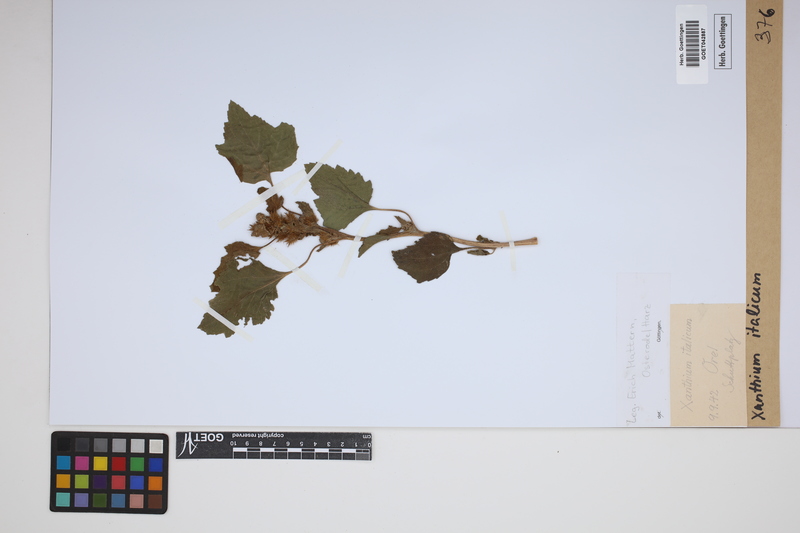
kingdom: Plantae
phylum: Tracheophyta
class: Magnoliopsida
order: Asterales
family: Asteraceae
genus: Xanthium
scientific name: Xanthium orientale
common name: Californian burr
